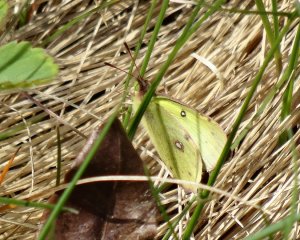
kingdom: Animalia
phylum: Arthropoda
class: Insecta
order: Lepidoptera
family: Pieridae
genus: Colias
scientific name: Colias philodice
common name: Clouded Sulphur
